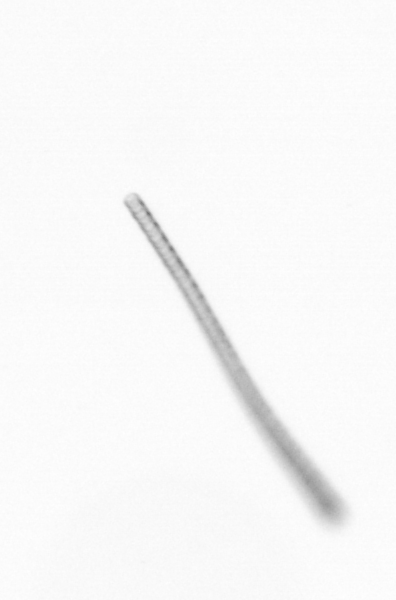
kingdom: Chromista
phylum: Ochrophyta
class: Bacillariophyceae
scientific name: Bacillariophyceae
